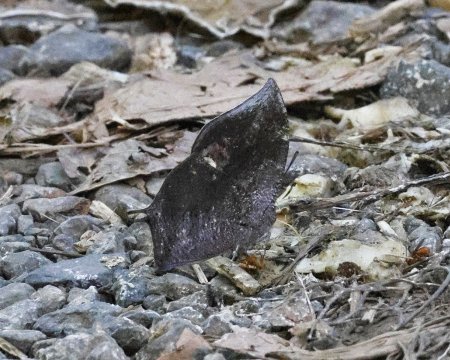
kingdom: Animalia
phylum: Arthropoda
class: Insecta
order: Lepidoptera
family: Nymphalidae
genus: Memphis
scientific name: Memphis moruus
